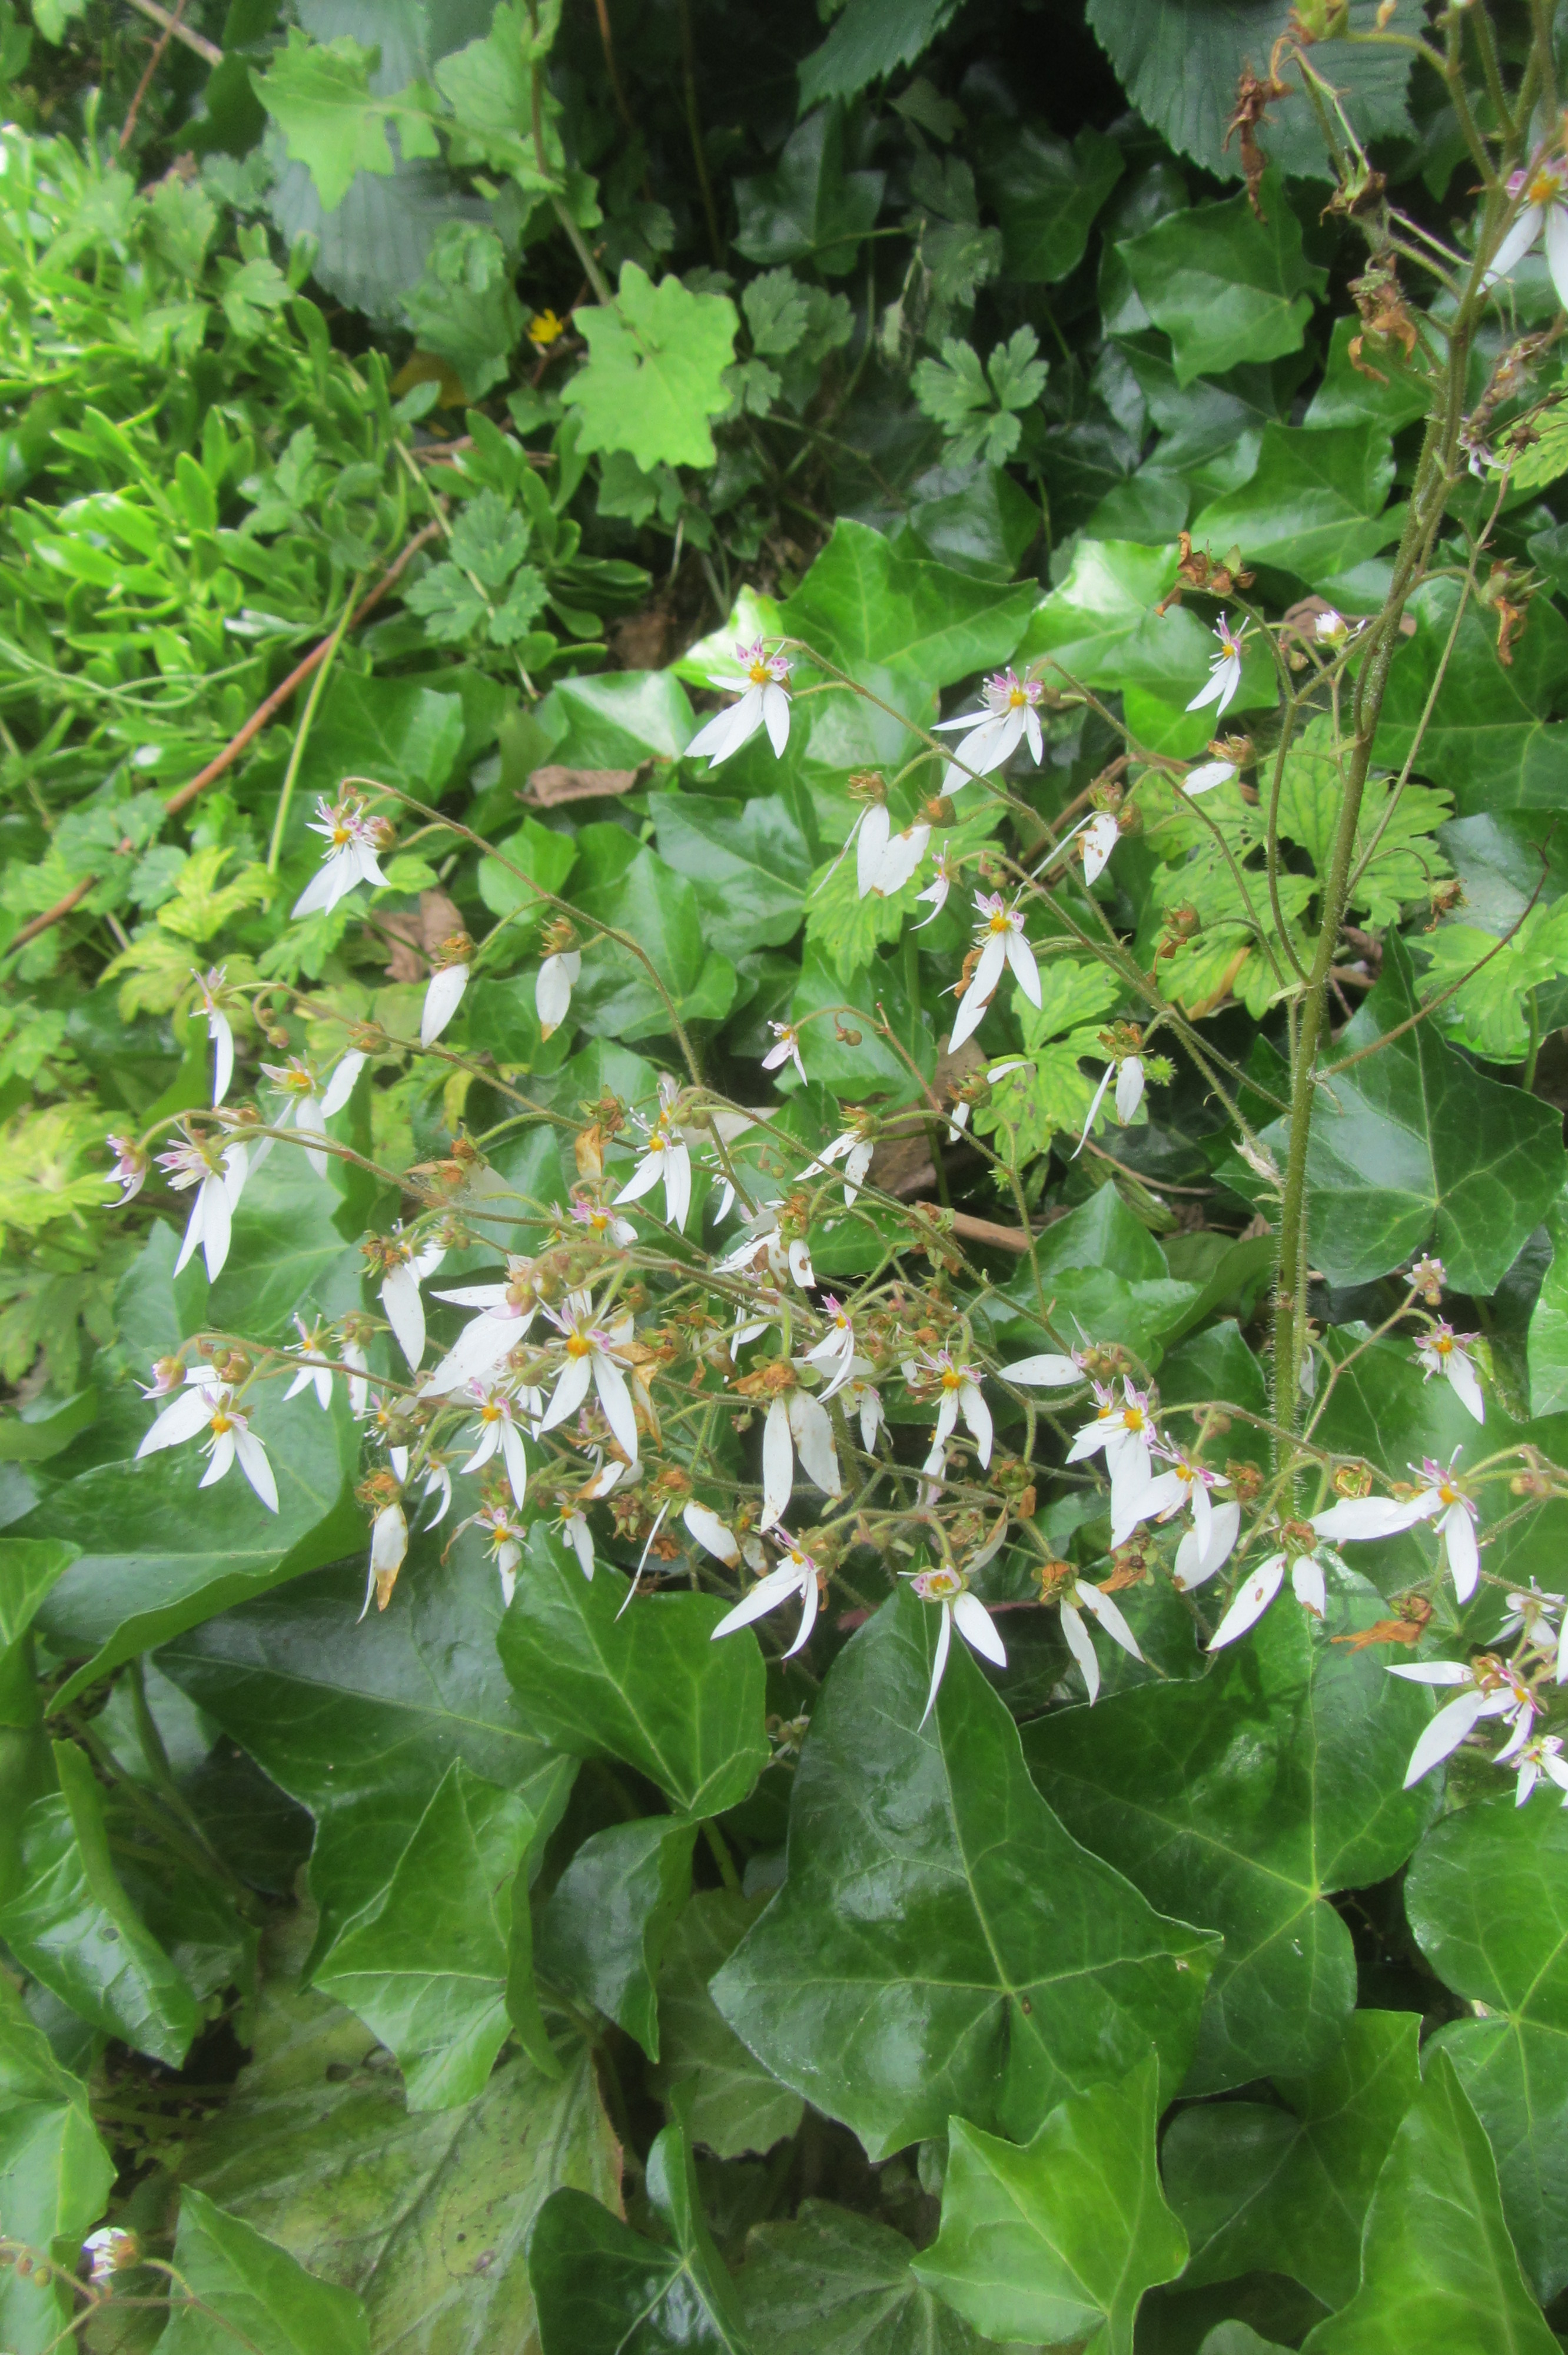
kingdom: Plantae
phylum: Tracheophyta
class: Magnoliopsida
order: Saxifragales
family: Saxifragaceae
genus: Saxifraga
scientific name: Saxifraga stolonifera
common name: Creeping saxifrage
